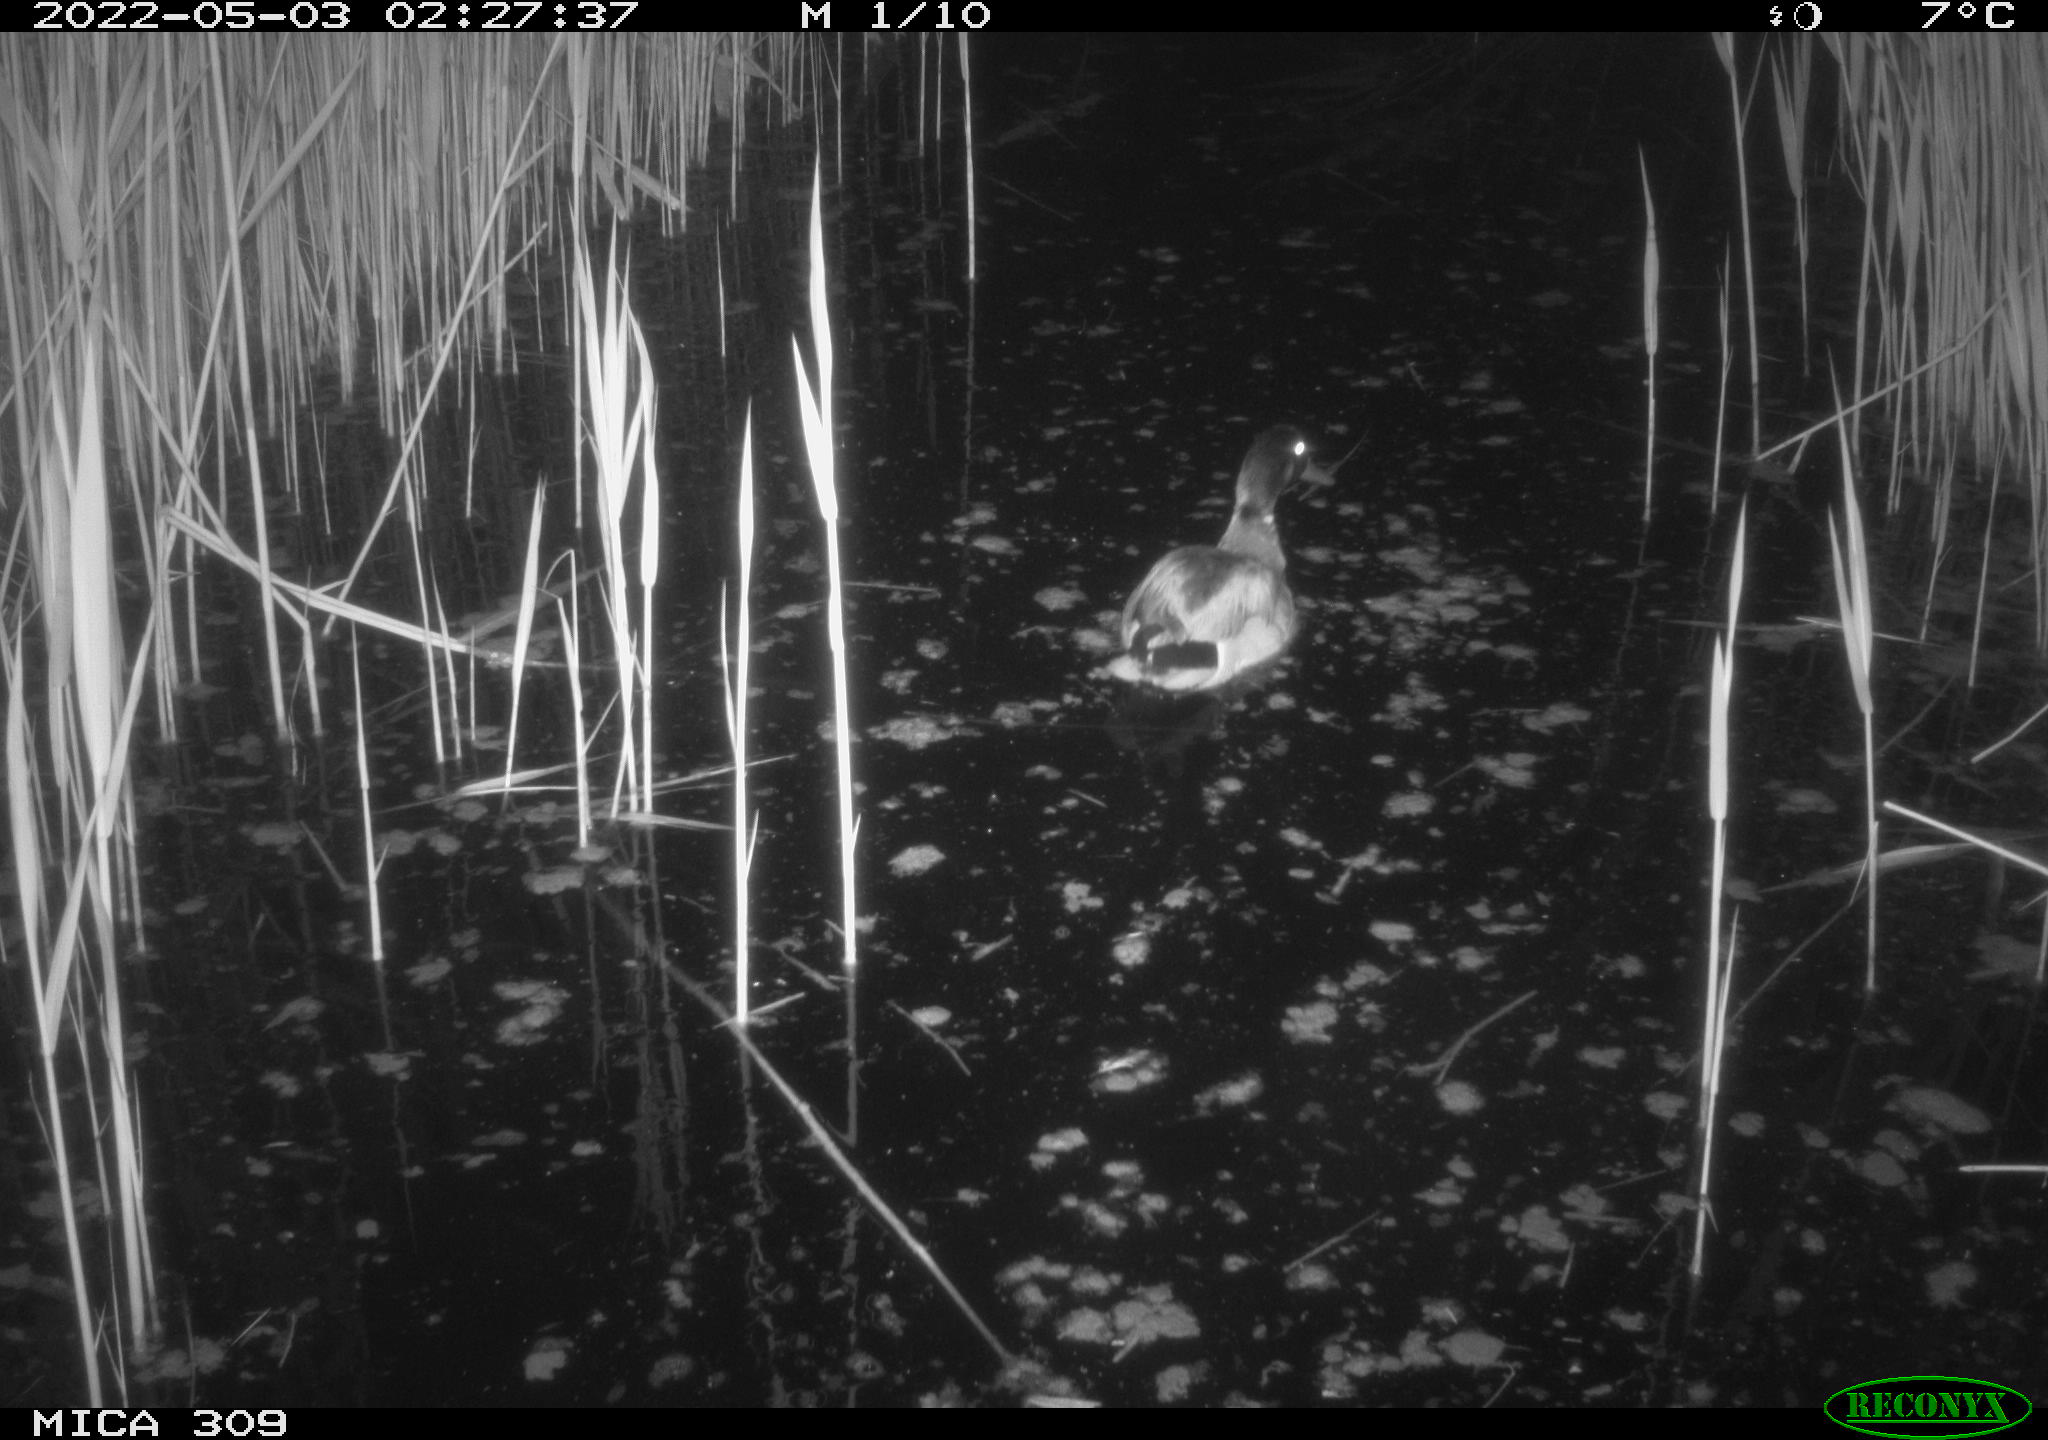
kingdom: Animalia
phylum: Chordata
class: Aves
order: Anseriformes
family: Anatidae
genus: Anas
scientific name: Anas platyrhynchos
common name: Mallard
